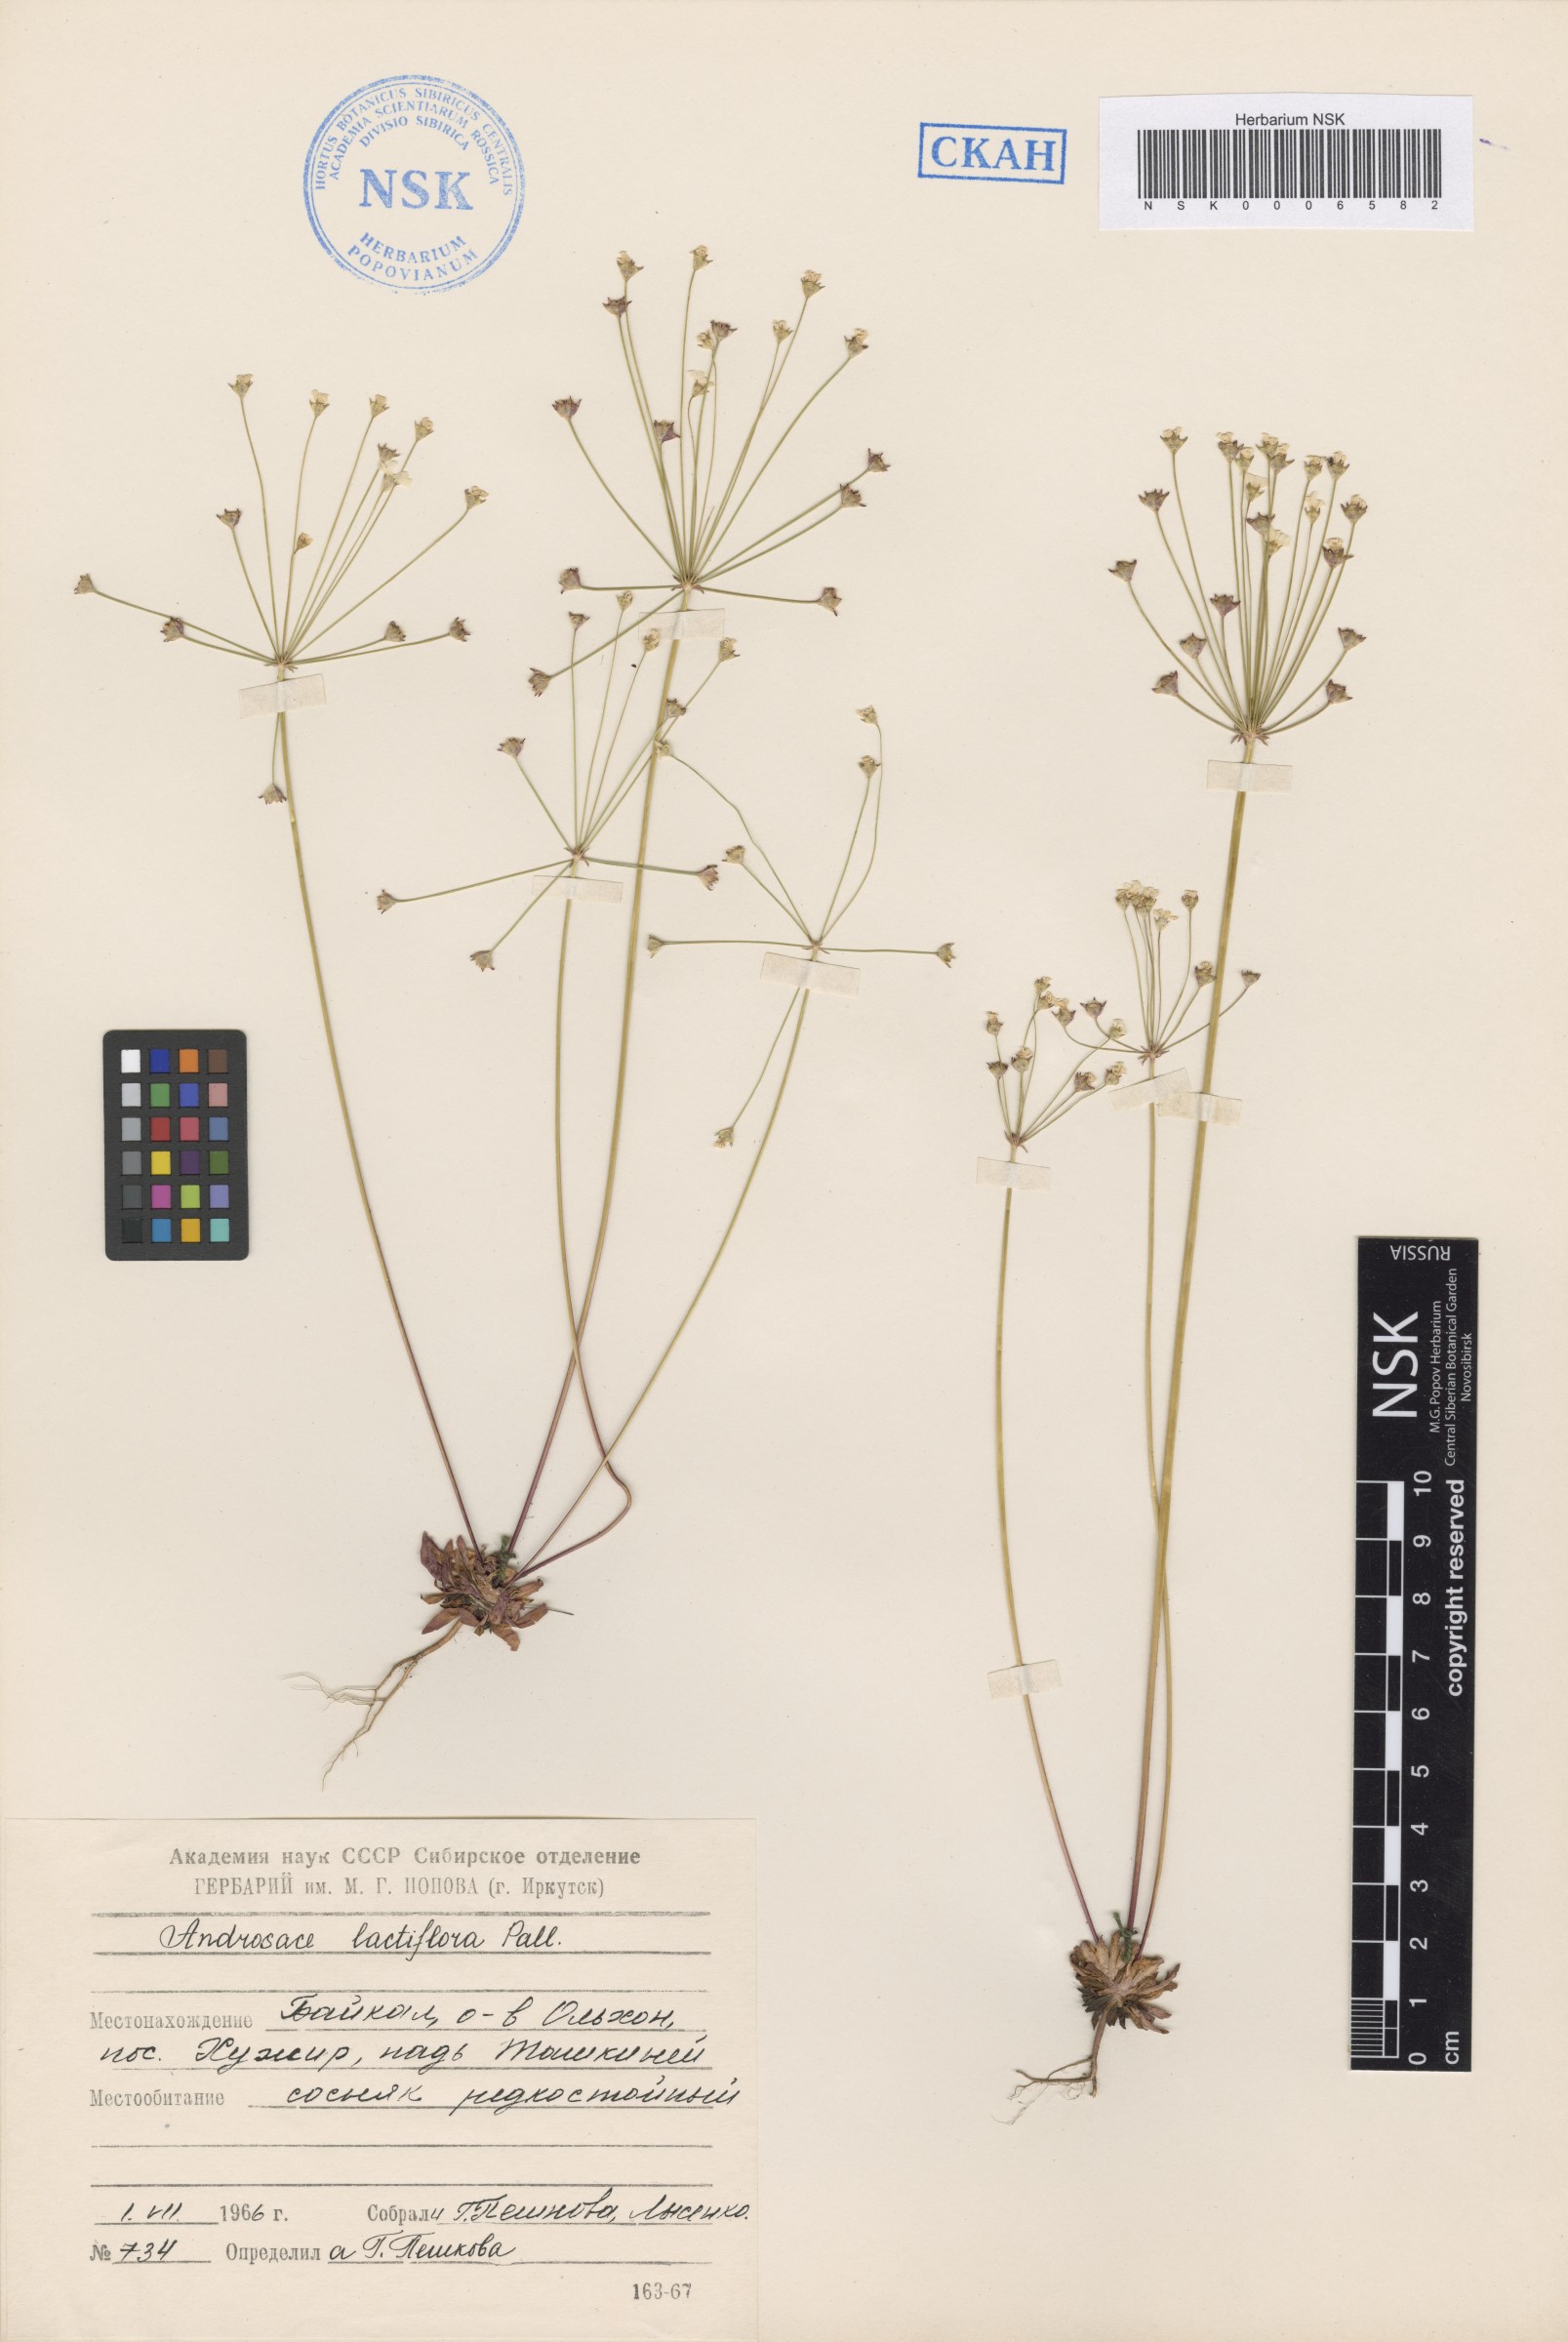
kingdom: Plantae
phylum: Tracheophyta
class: Magnoliopsida
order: Ericales
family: Primulaceae
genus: Androsace
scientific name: Androsace lactiflora
